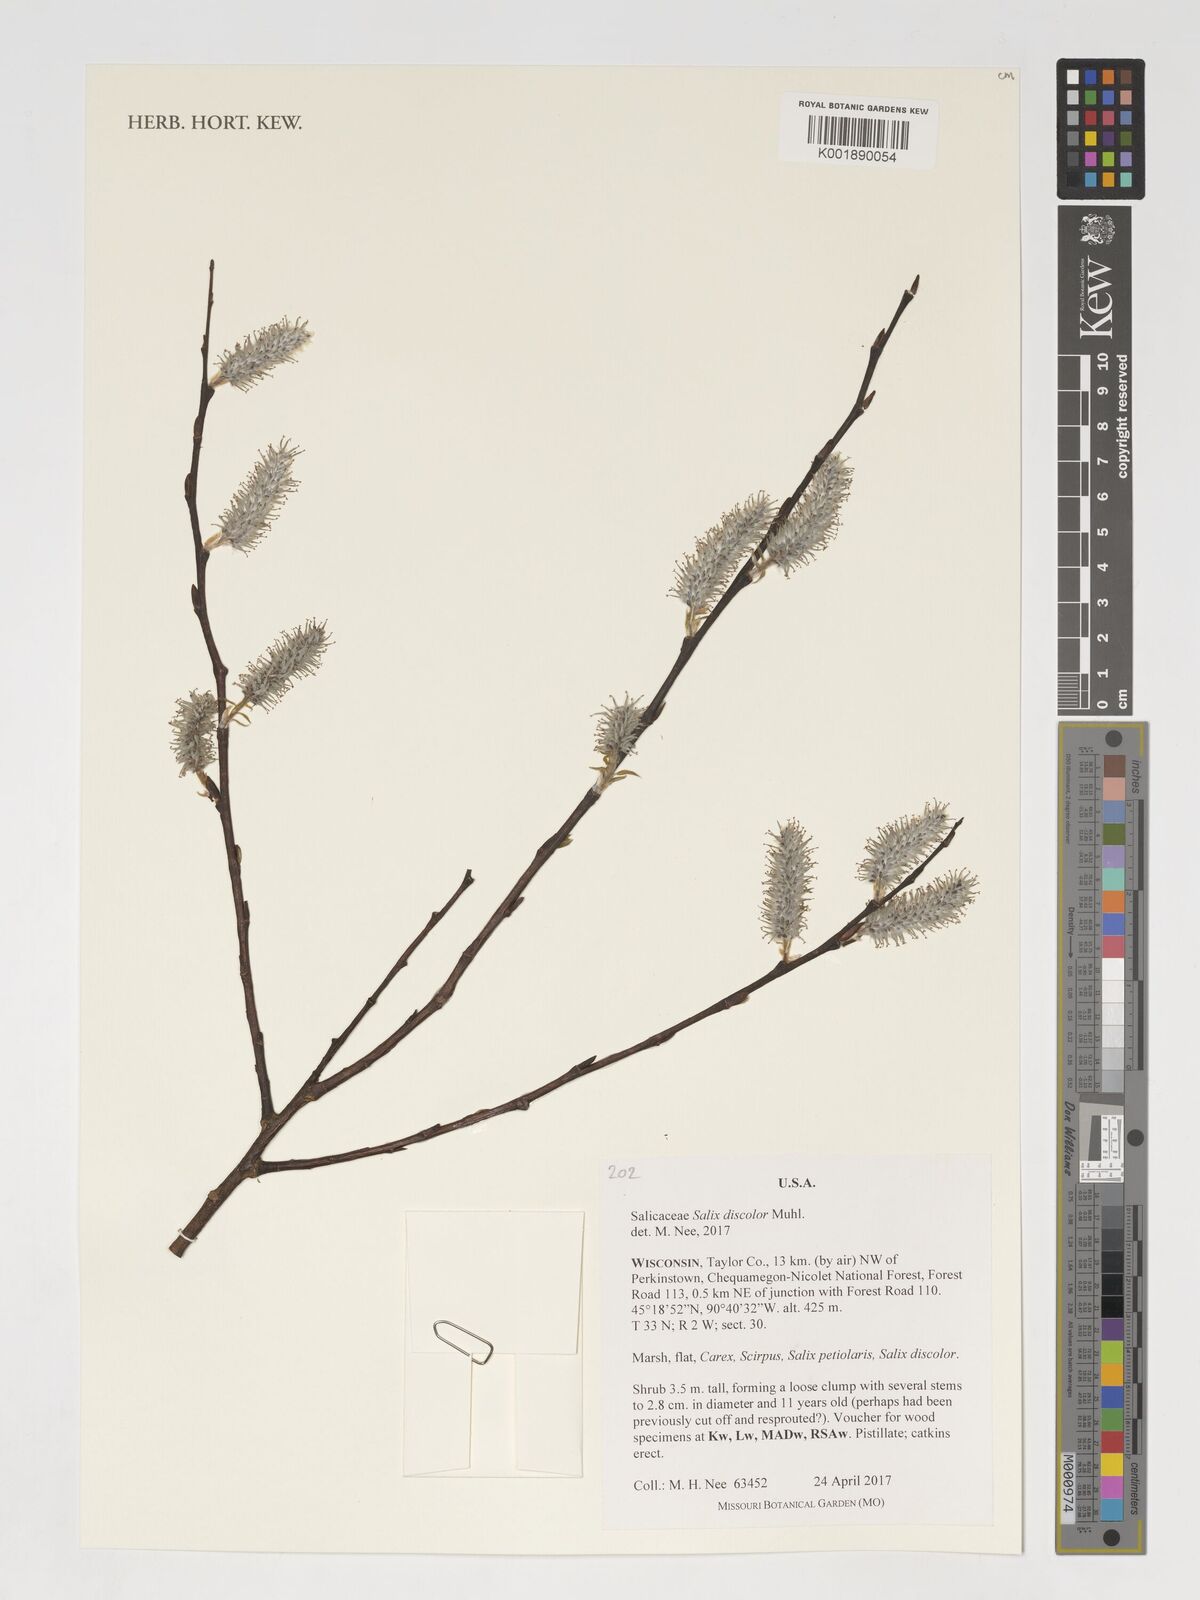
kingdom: Plantae
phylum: Tracheophyta
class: Magnoliopsida
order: Malpighiales
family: Salicaceae
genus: Salix
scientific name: Salix discolor
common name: Glaucous willow
